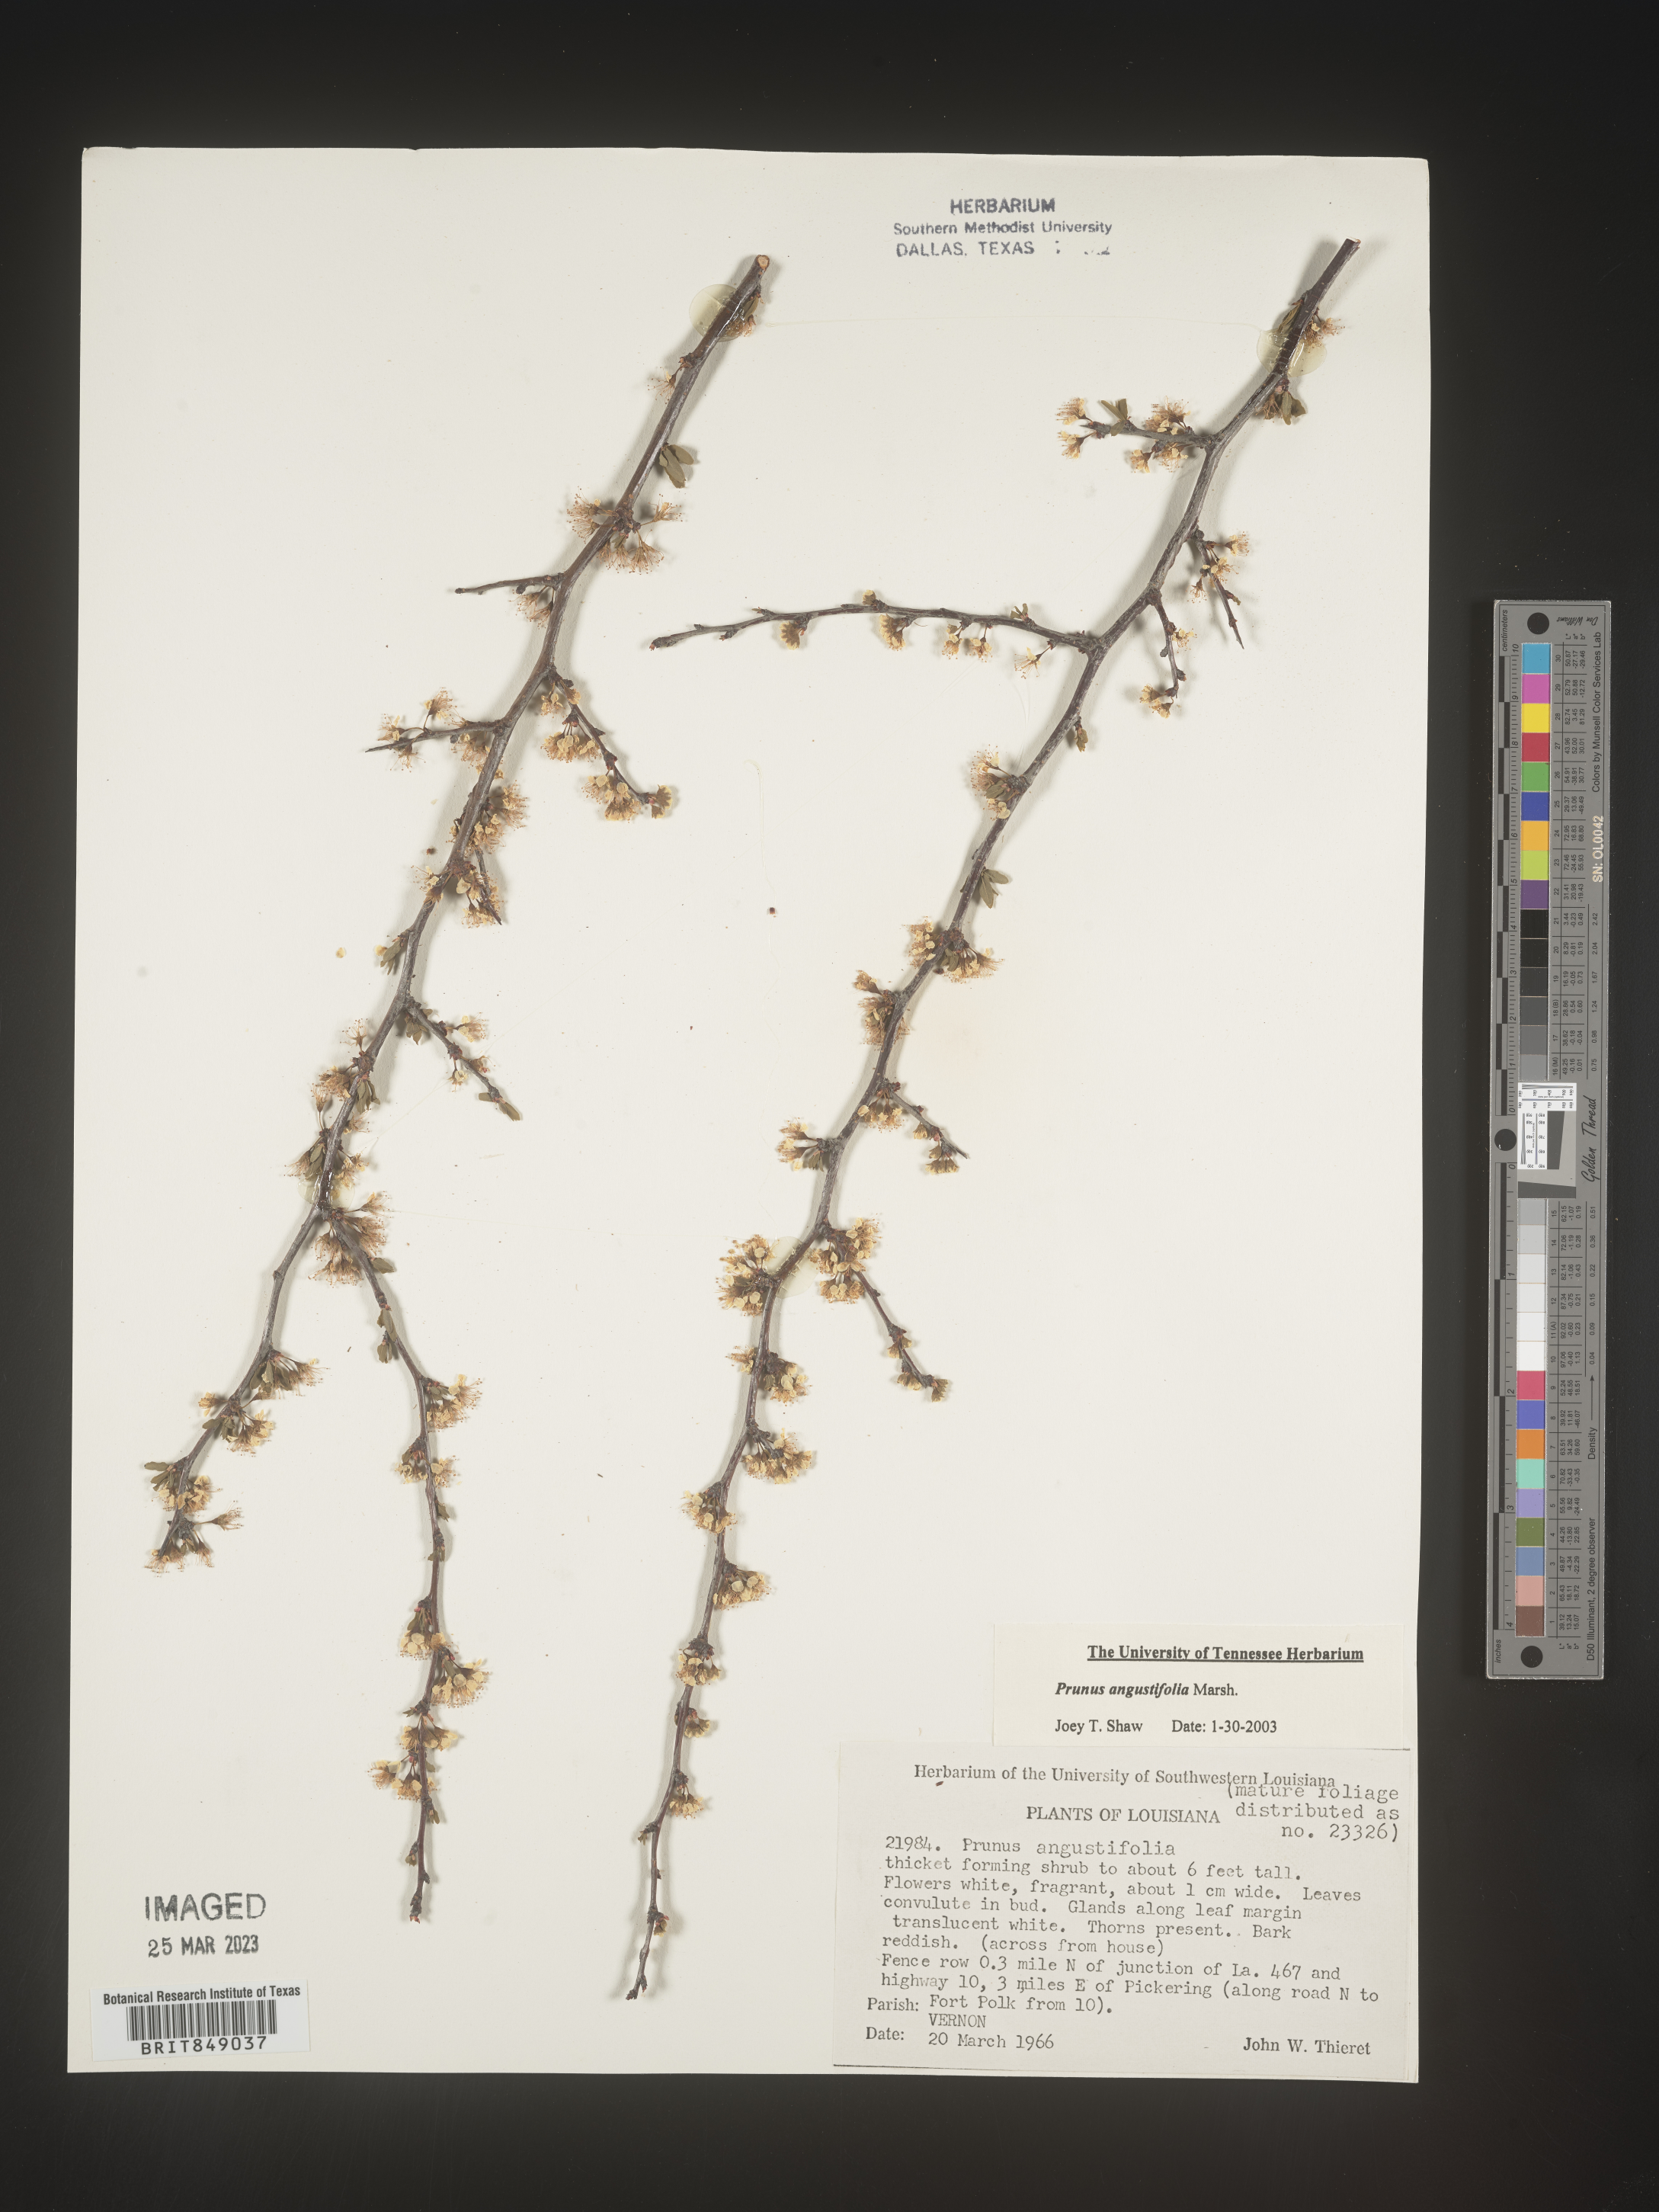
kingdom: Plantae
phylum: Tracheophyta
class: Magnoliopsida
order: Rosales
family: Rosaceae
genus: Prunus
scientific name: Prunus angustifolia
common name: Cherokee plum
